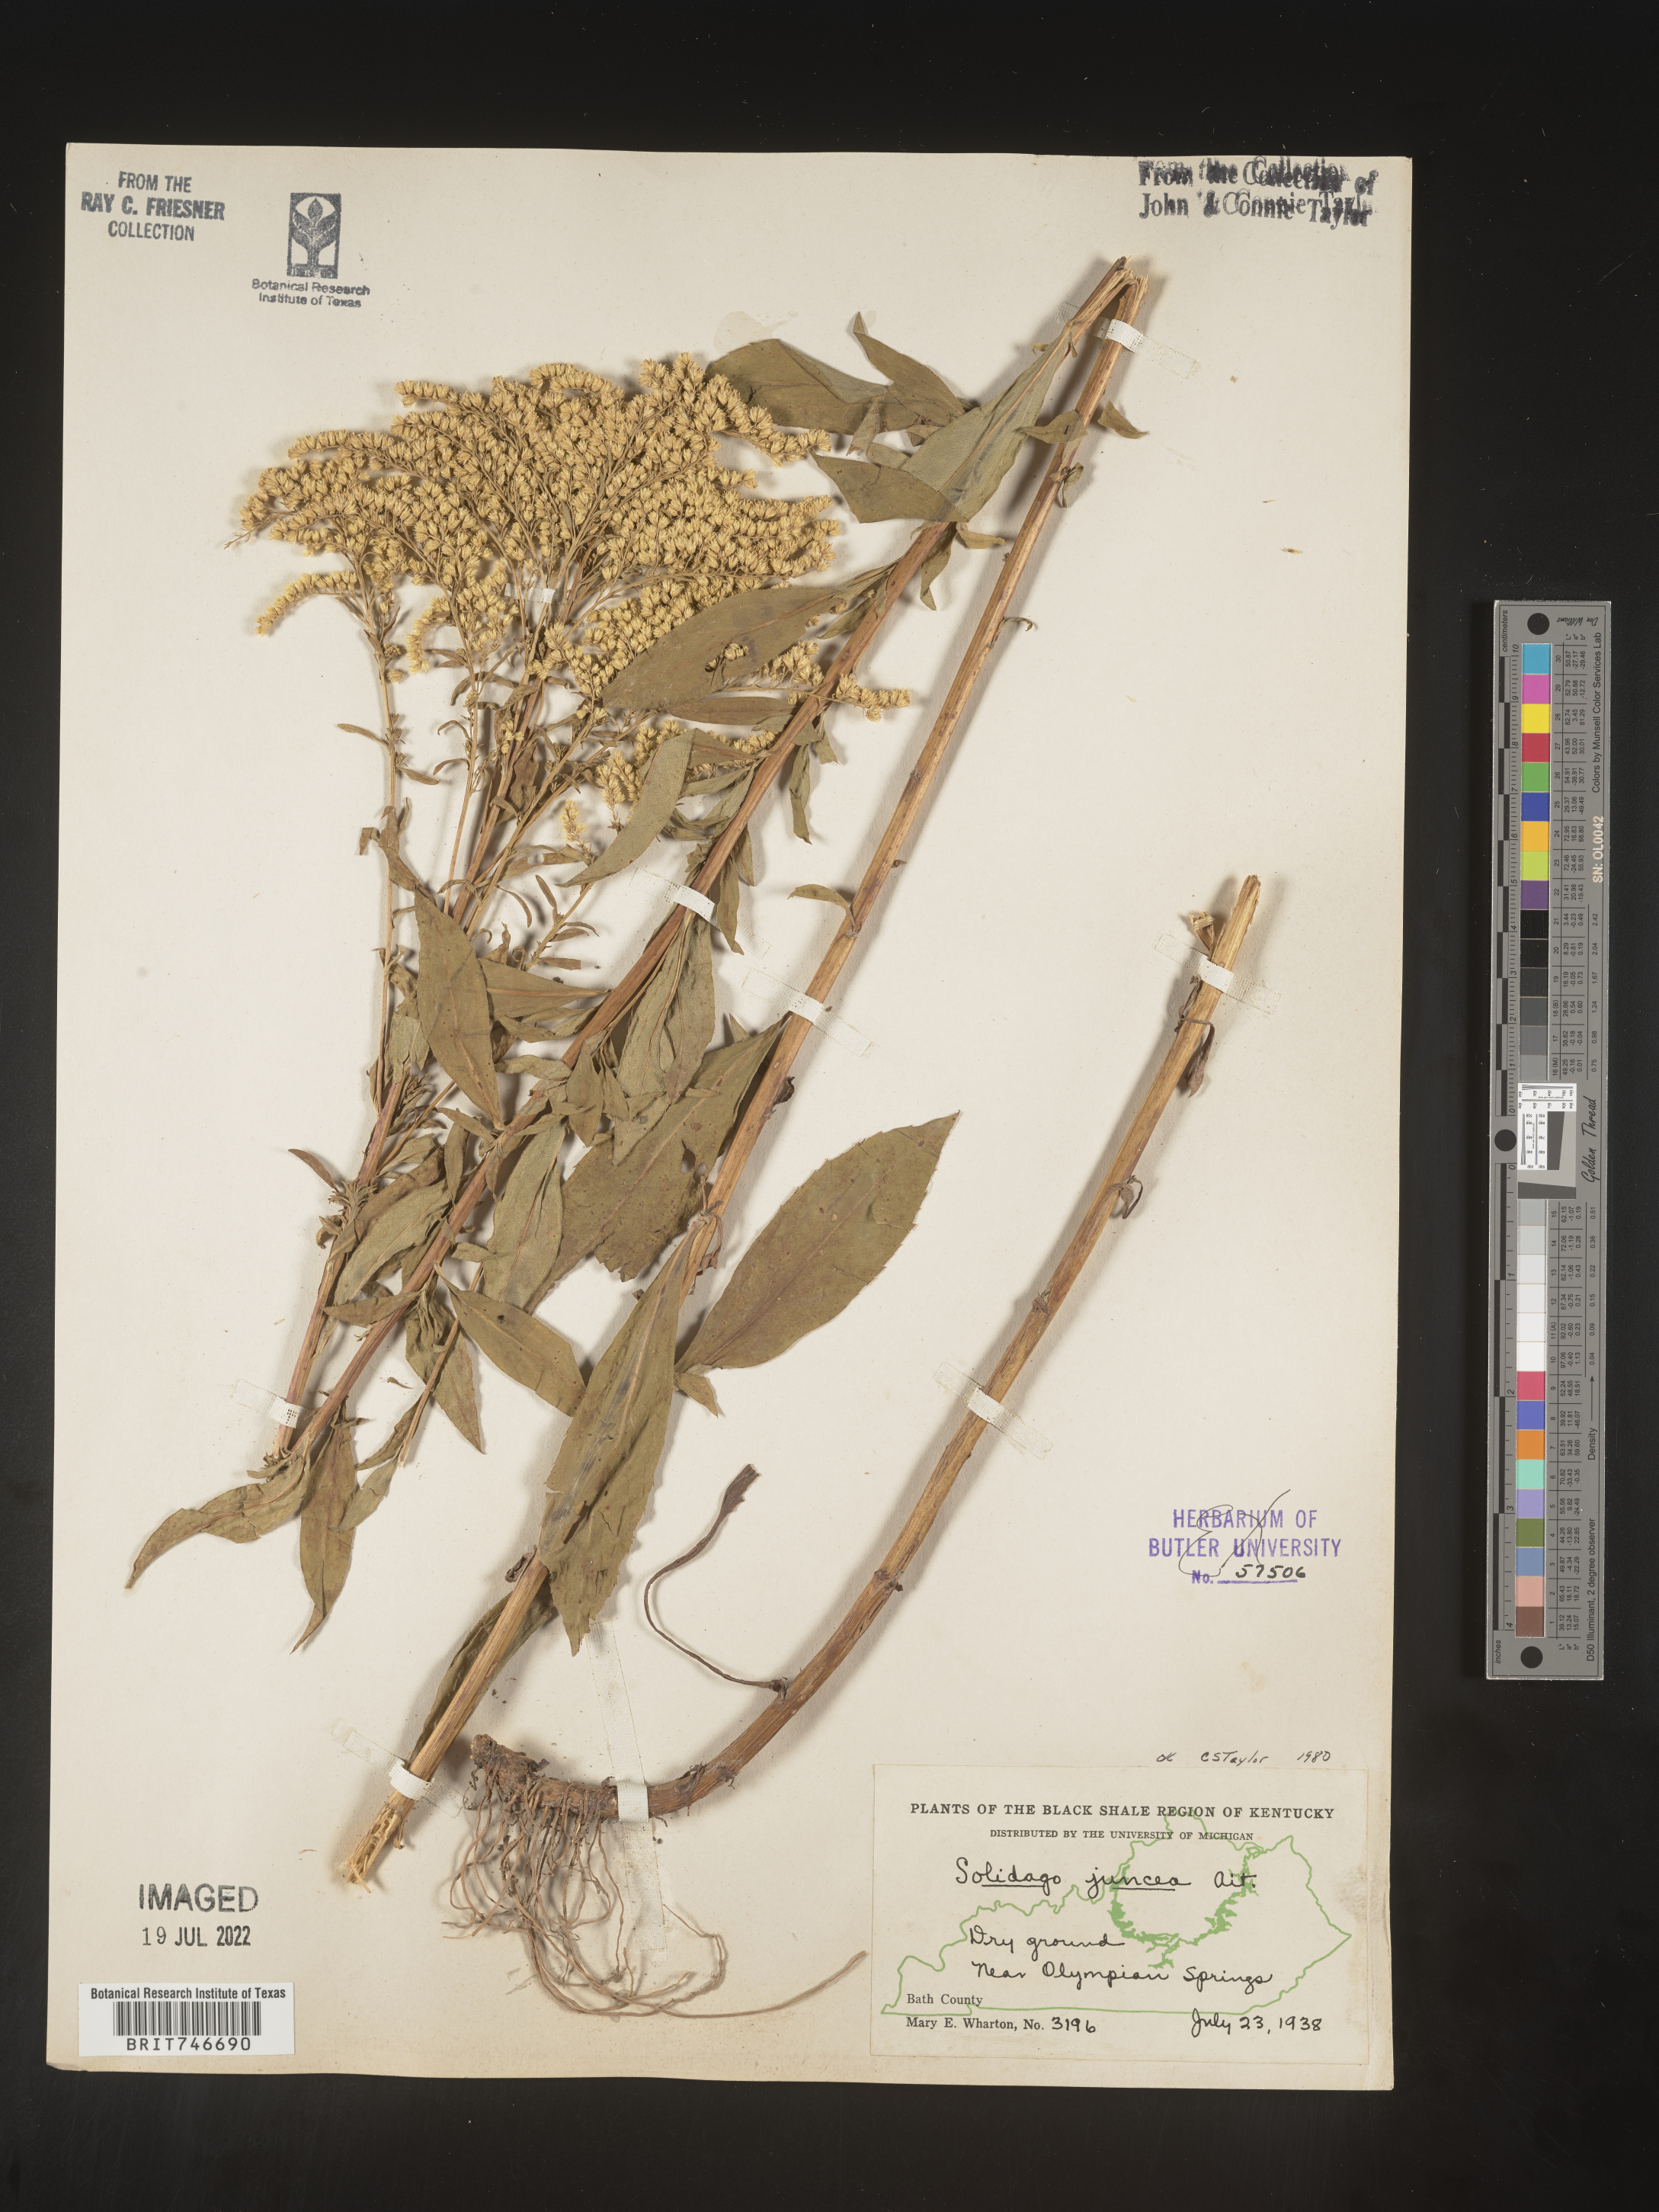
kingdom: Plantae
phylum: Tracheophyta
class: Magnoliopsida
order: Asterales
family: Asteraceae
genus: Solidago
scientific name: Solidago juncea
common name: Early goldenrod
